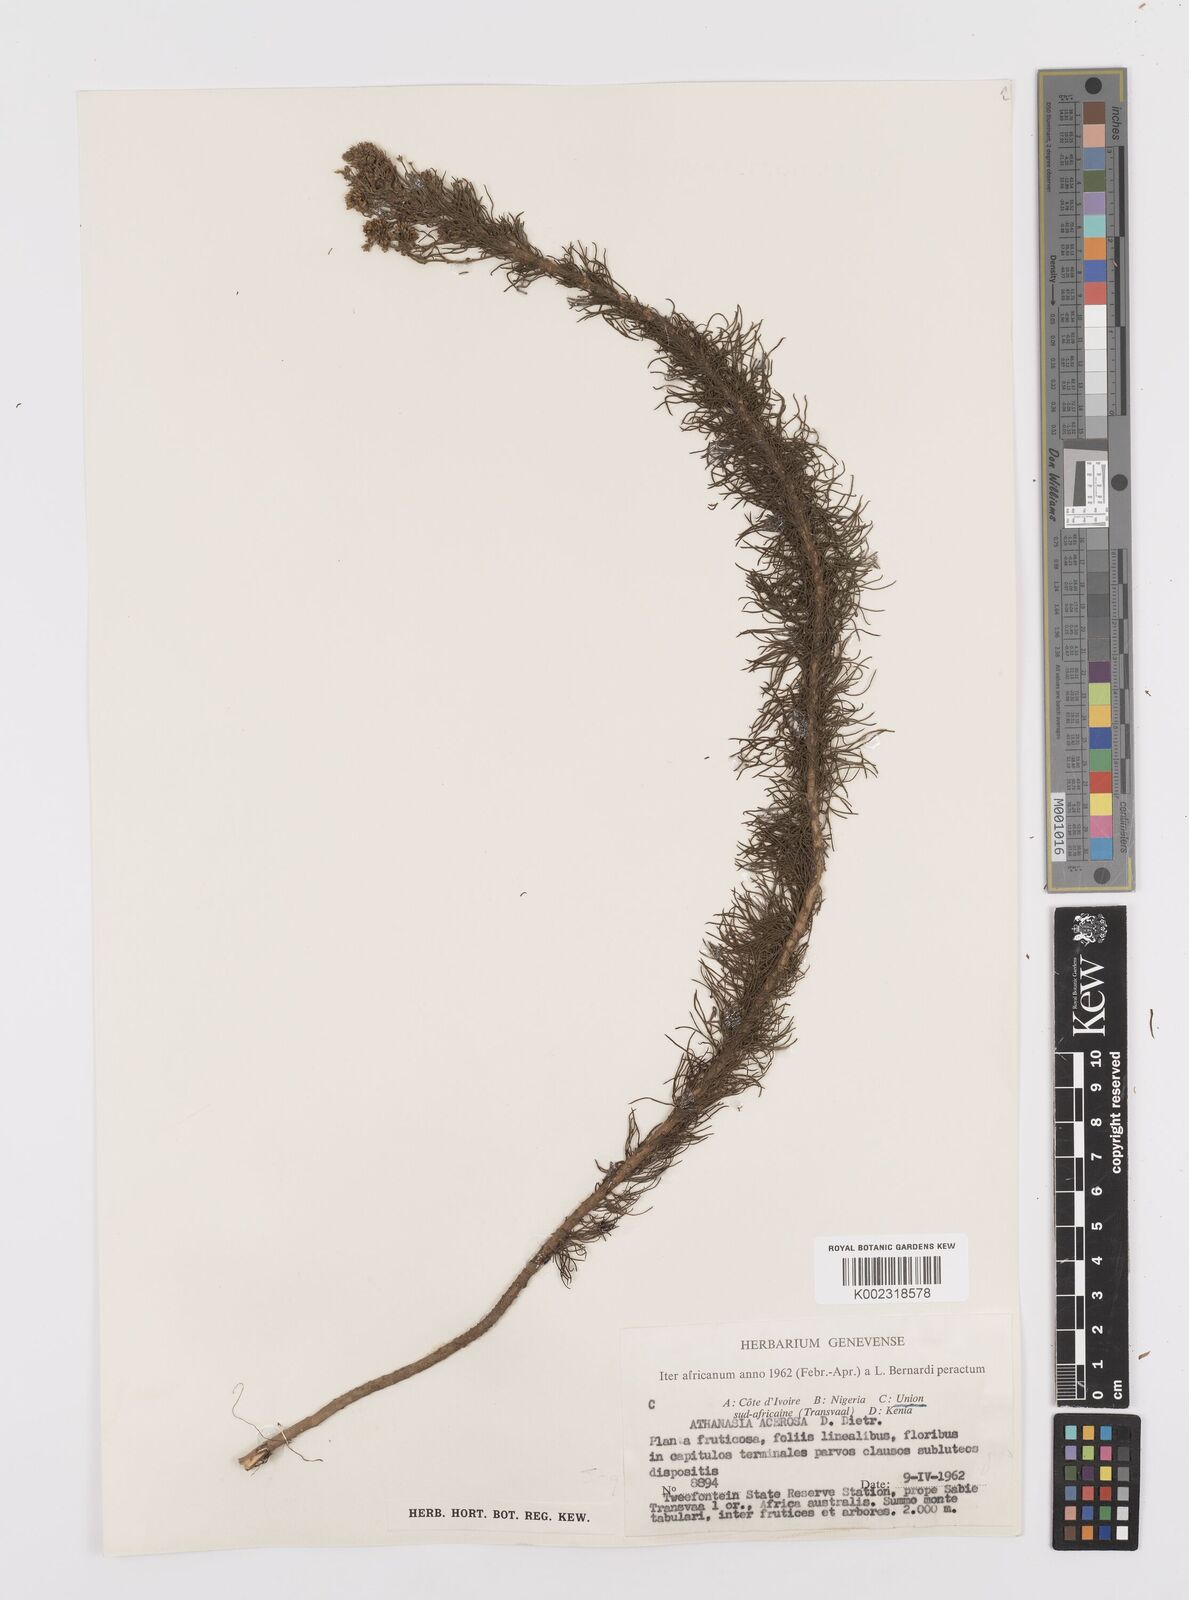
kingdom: Plantae
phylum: Tracheophyta
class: Magnoliopsida
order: Asterales
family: Asteraceae
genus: Phymaspermum
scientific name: Phymaspermum acerosum
